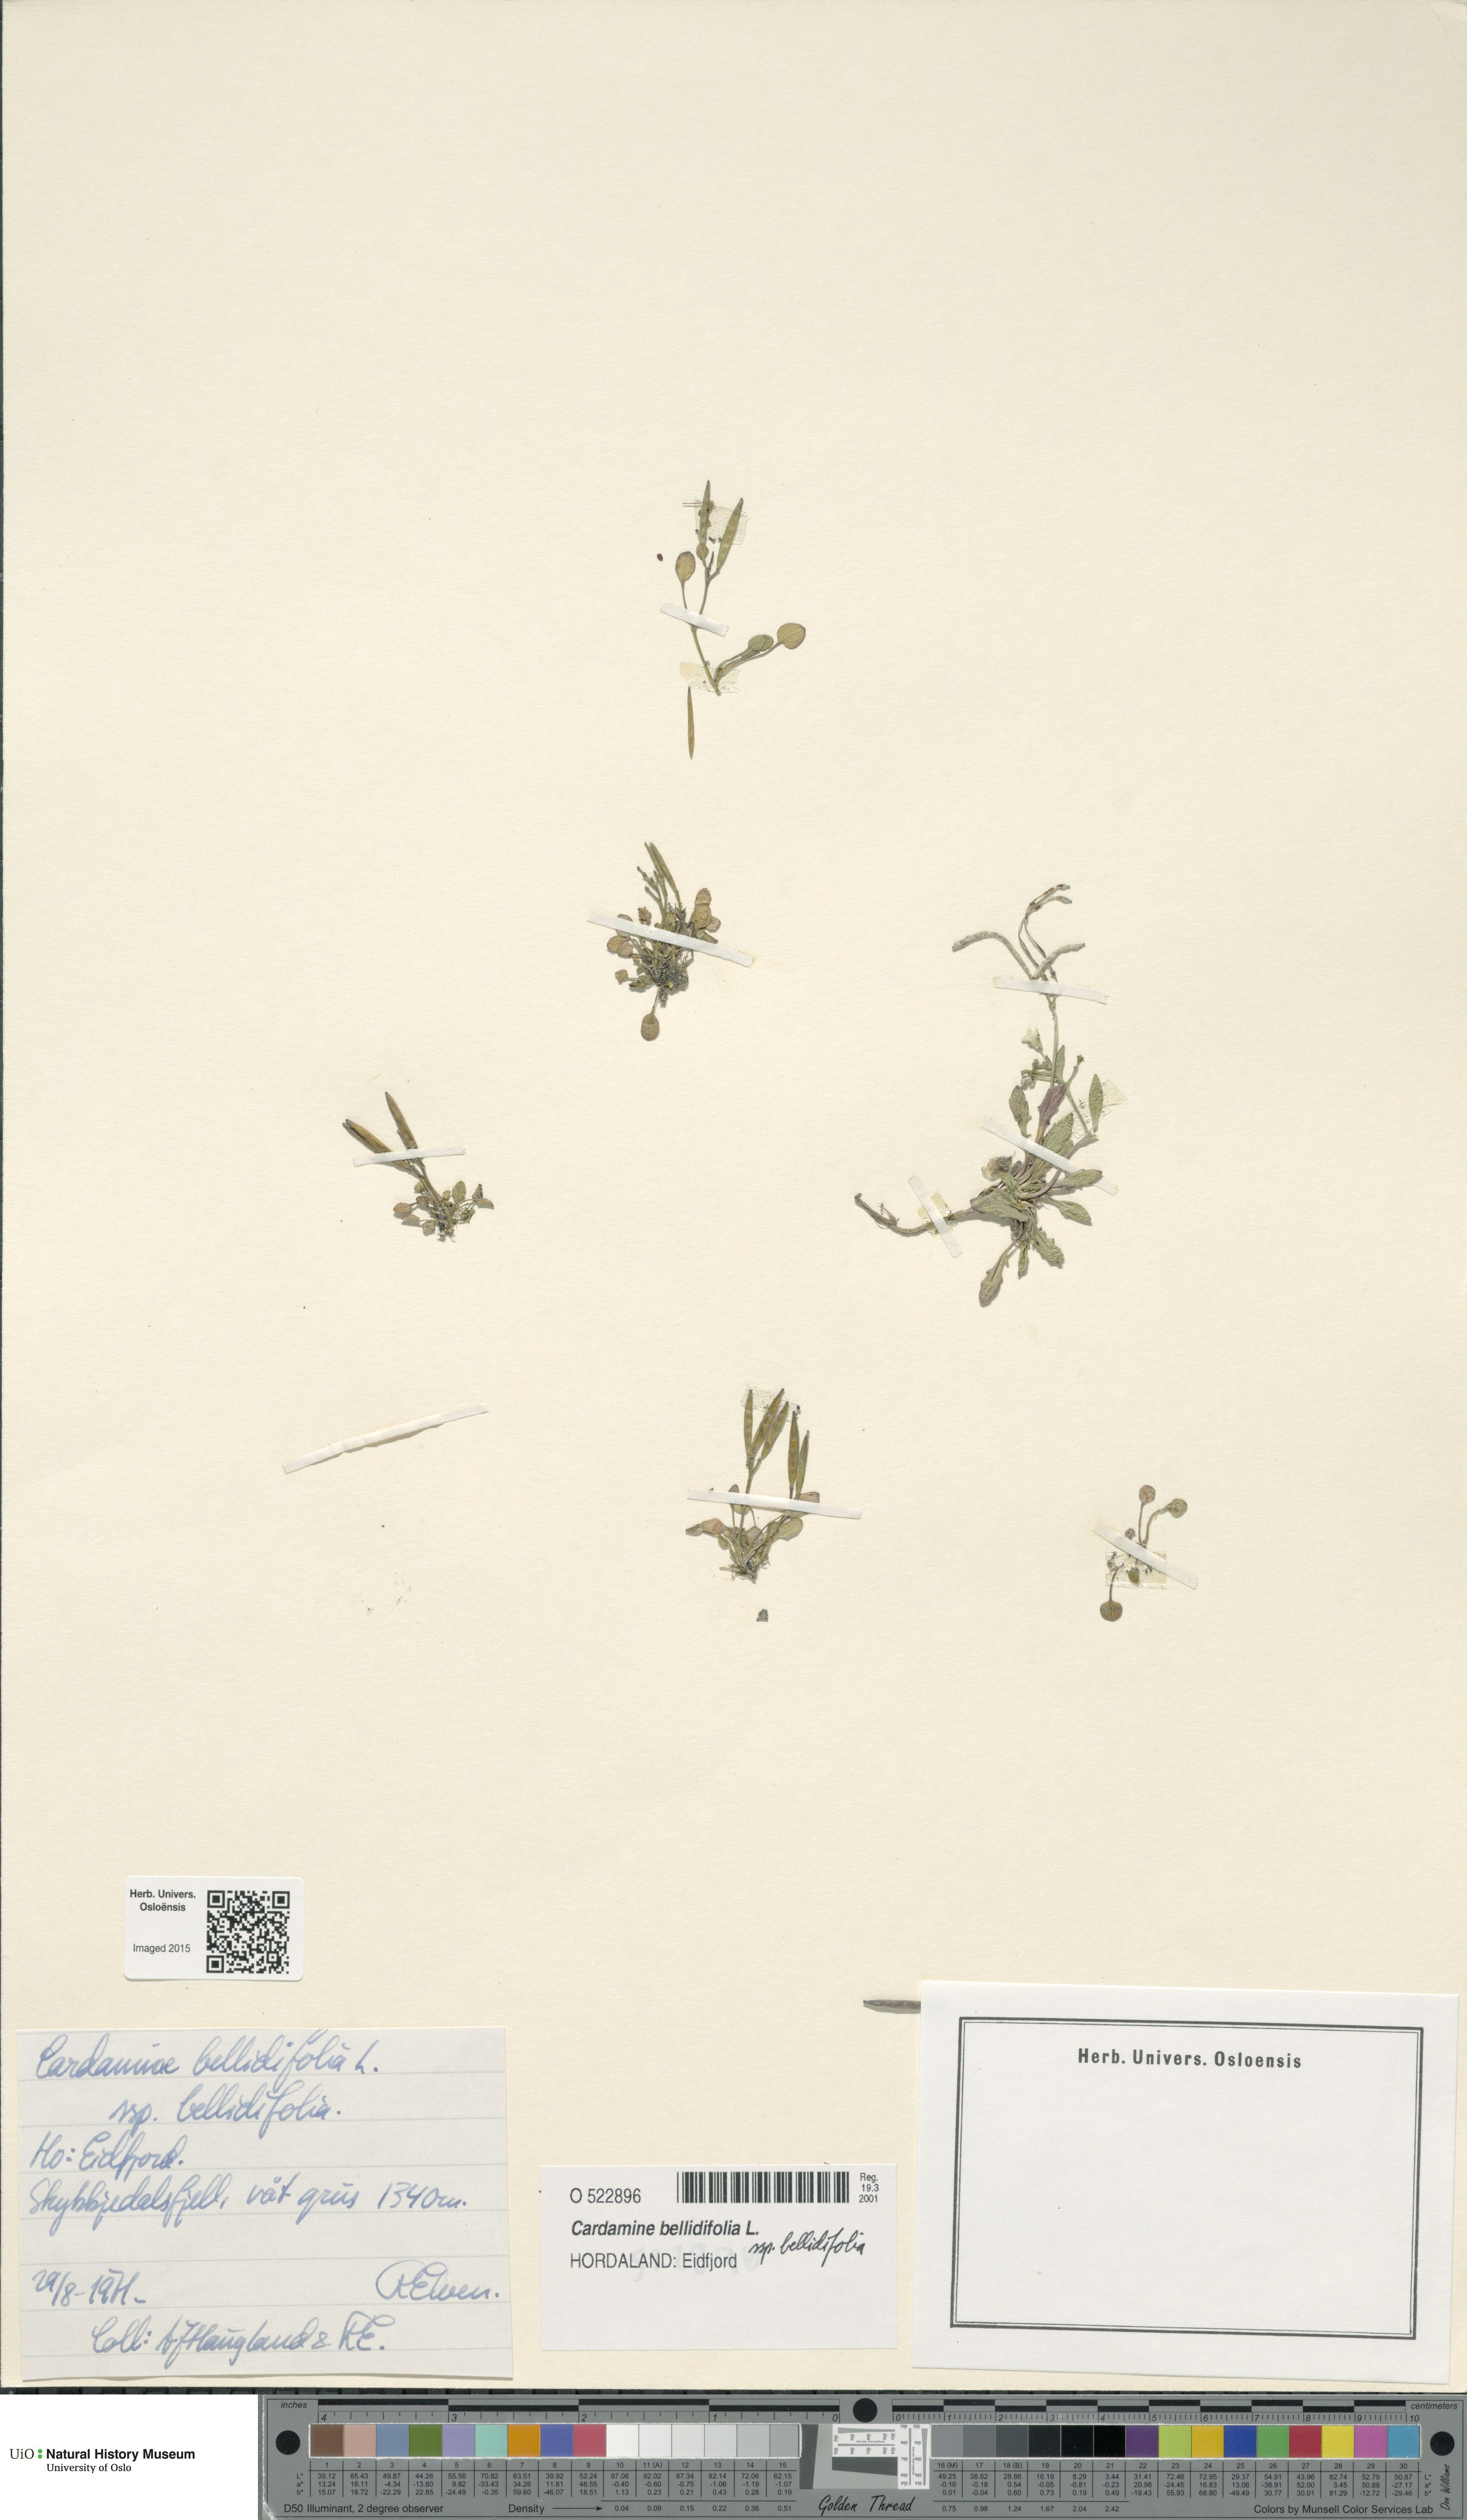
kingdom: Plantae
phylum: Tracheophyta
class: Magnoliopsida
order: Brassicales
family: Brassicaceae
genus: Cardamine
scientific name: Cardamine bellidifolia
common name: Alpine bittercress
